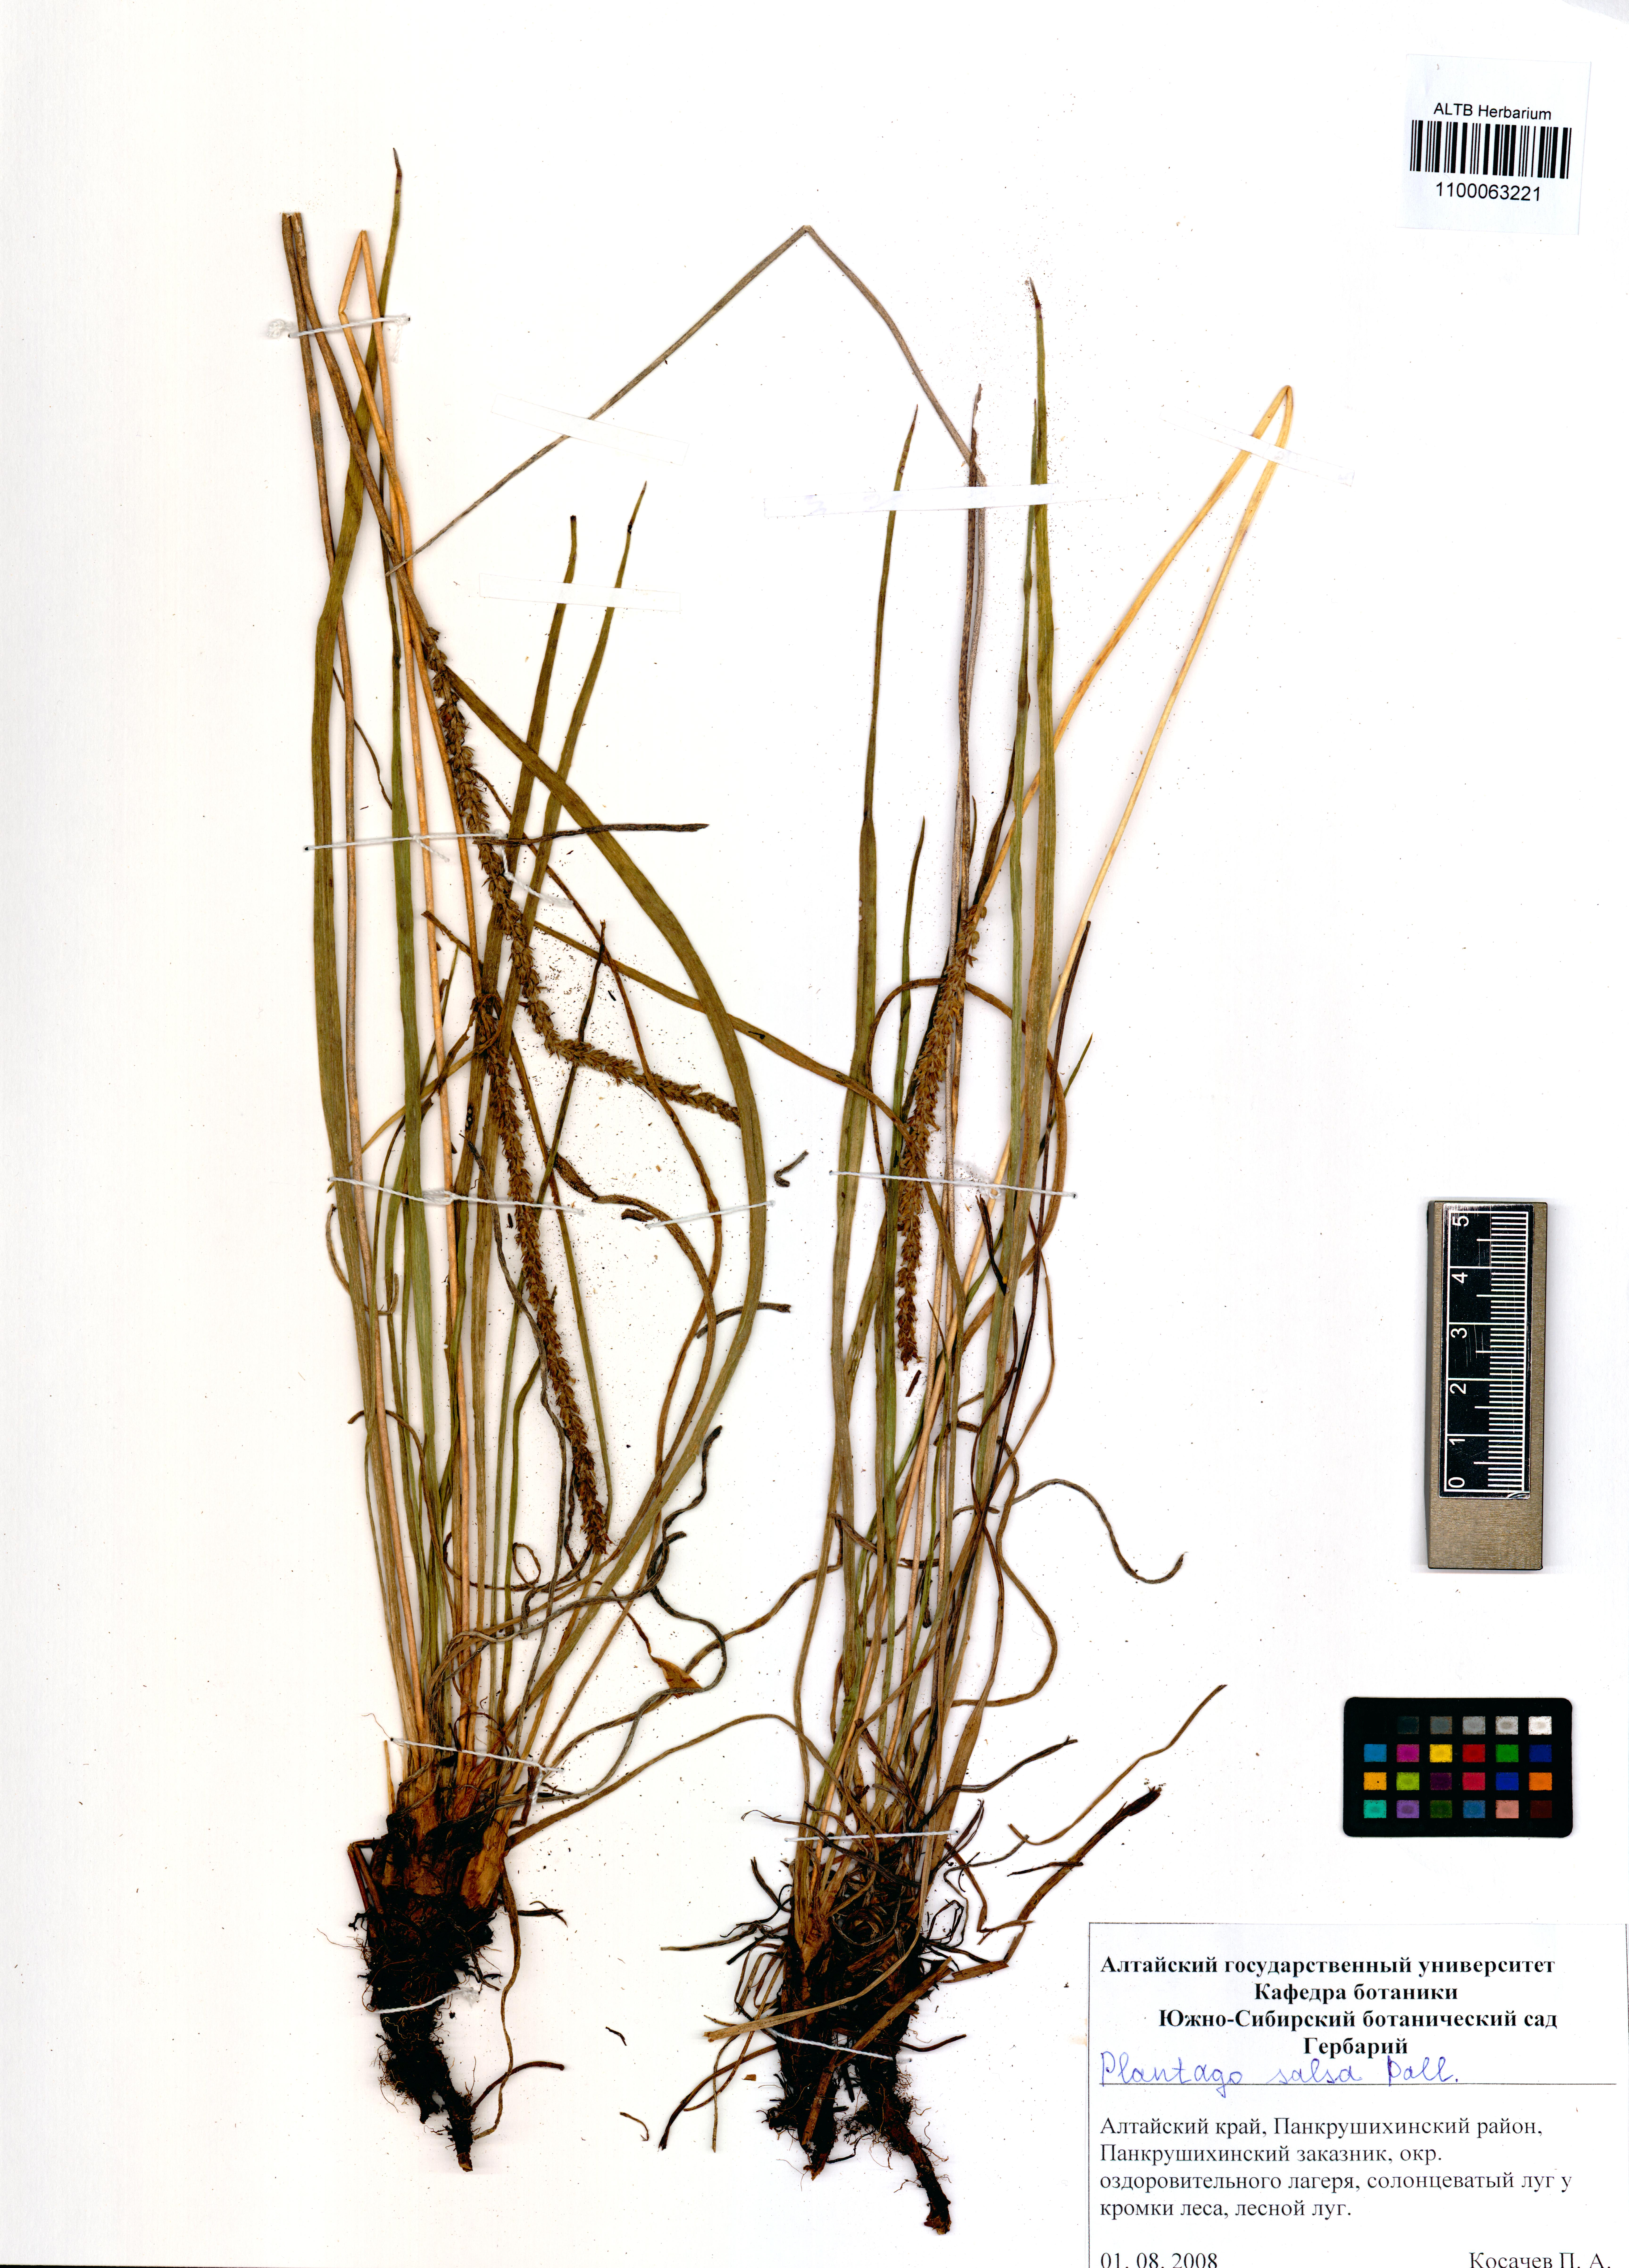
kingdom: Plantae
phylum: Tracheophyta
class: Magnoliopsida
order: Lamiales
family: Plantaginaceae
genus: Plantago
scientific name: Plantago salsa
